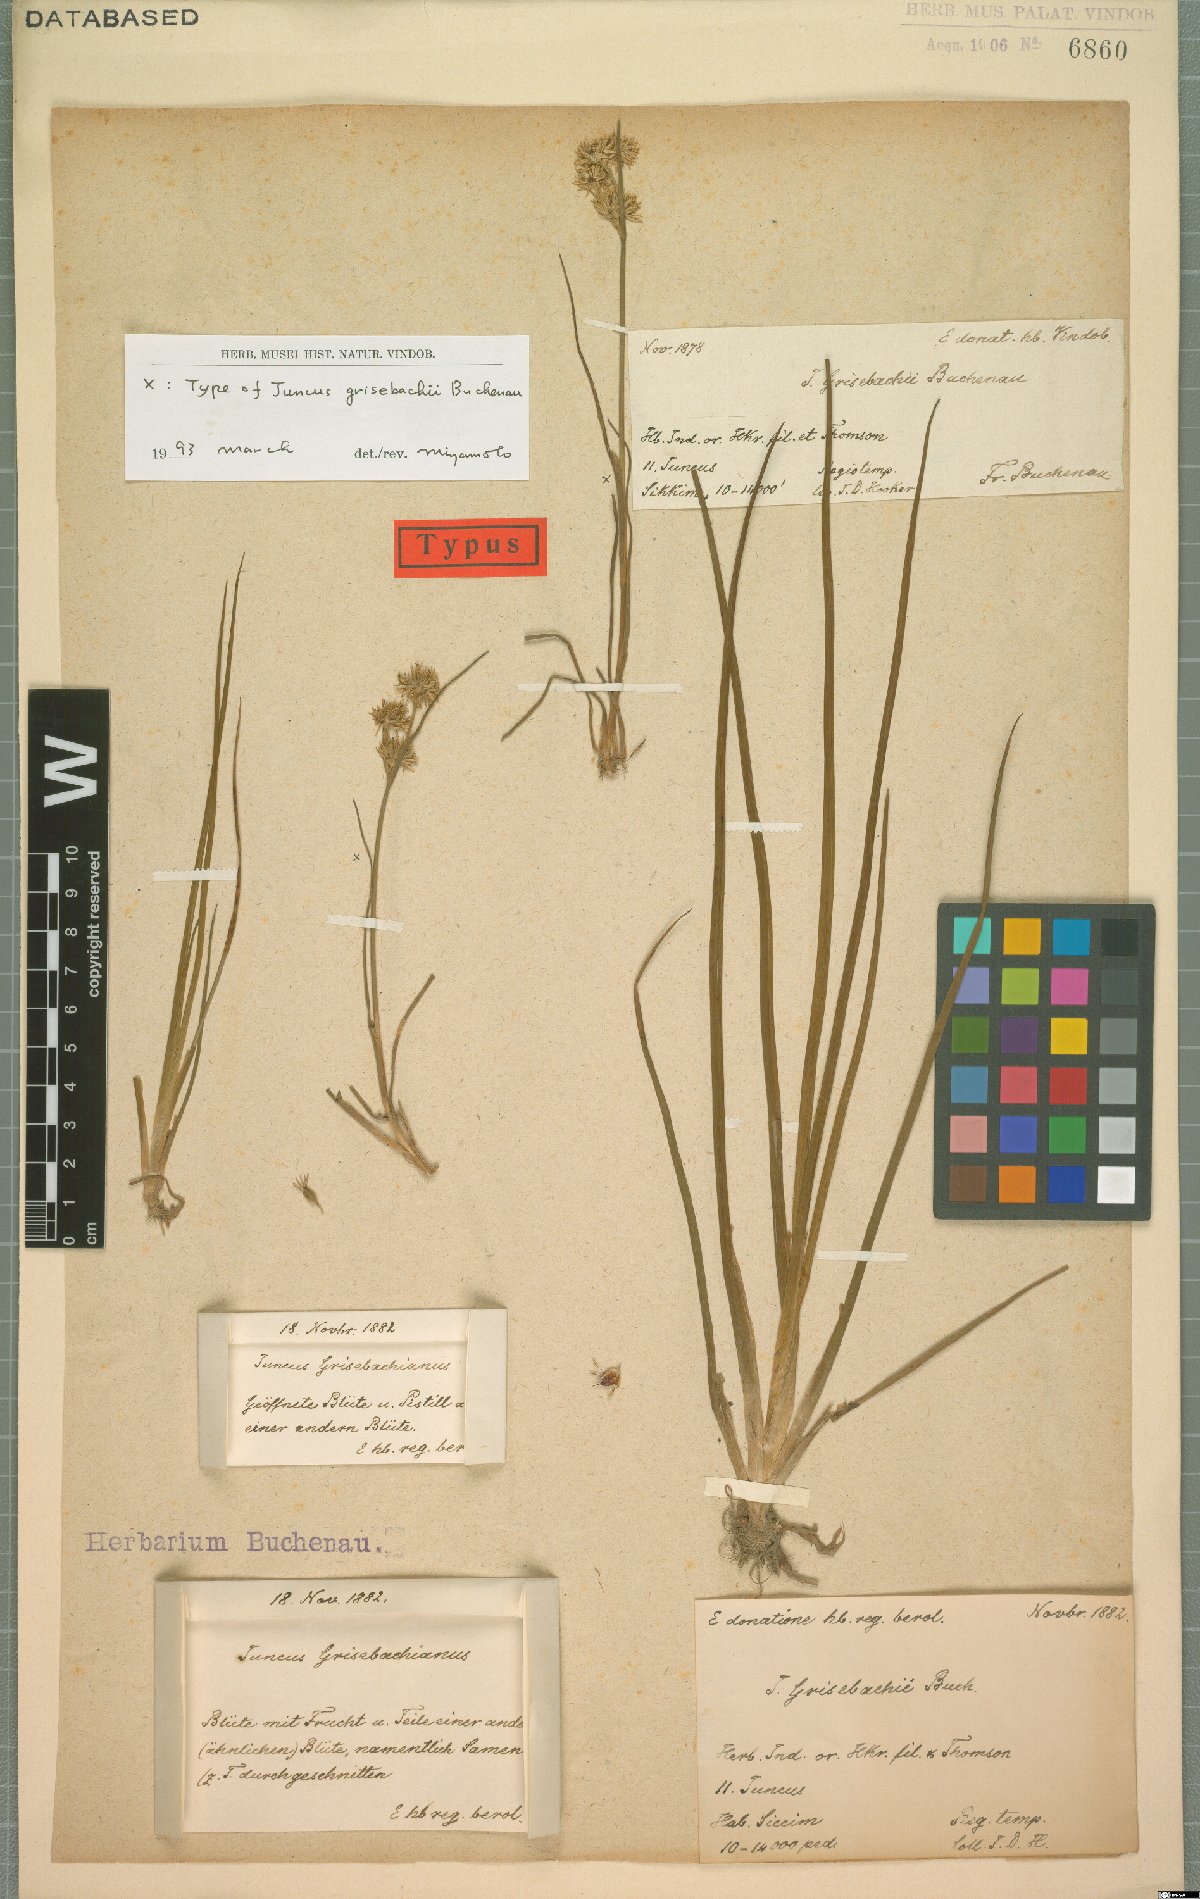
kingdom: Plantae
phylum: Tracheophyta
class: Liliopsida
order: Poales
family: Juncaceae
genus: Juncus
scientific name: Juncus grisebachii
